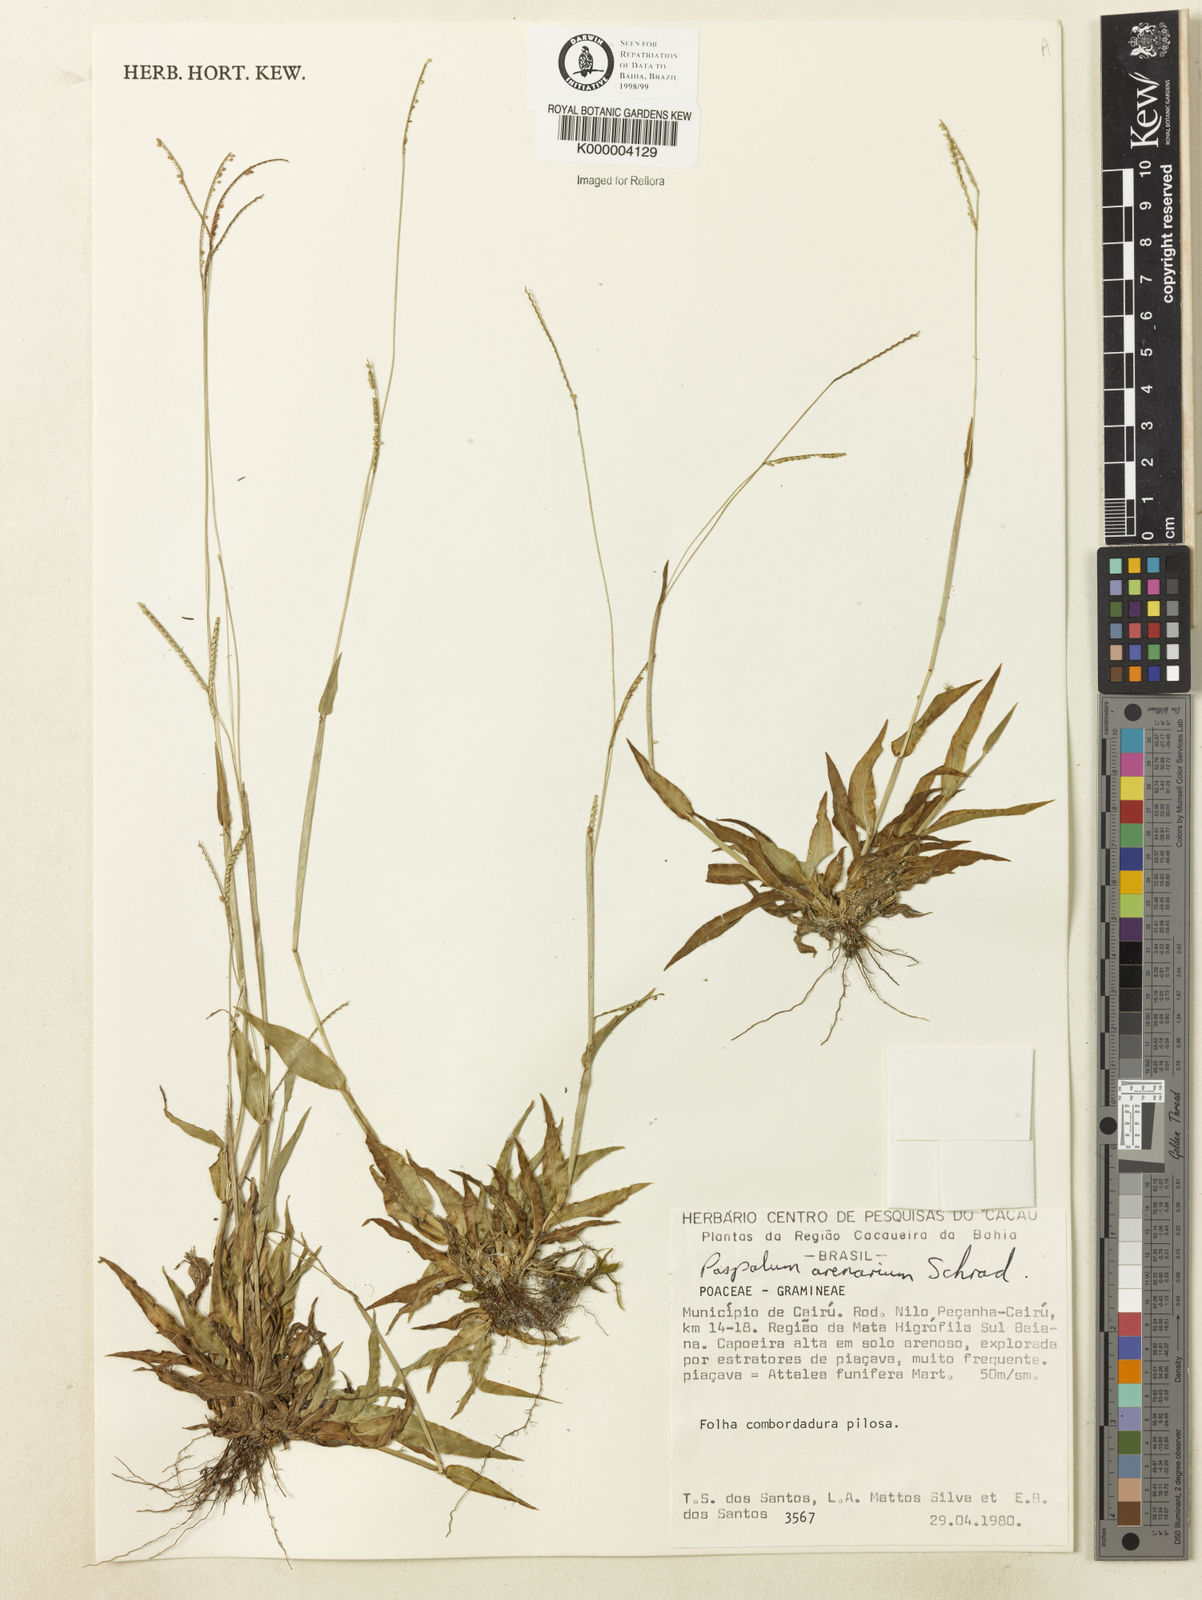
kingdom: Plantae
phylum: Tracheophyta
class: Liliopsida
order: Poales
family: Poaceae
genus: Paspalum
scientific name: Paspalum arenarium
